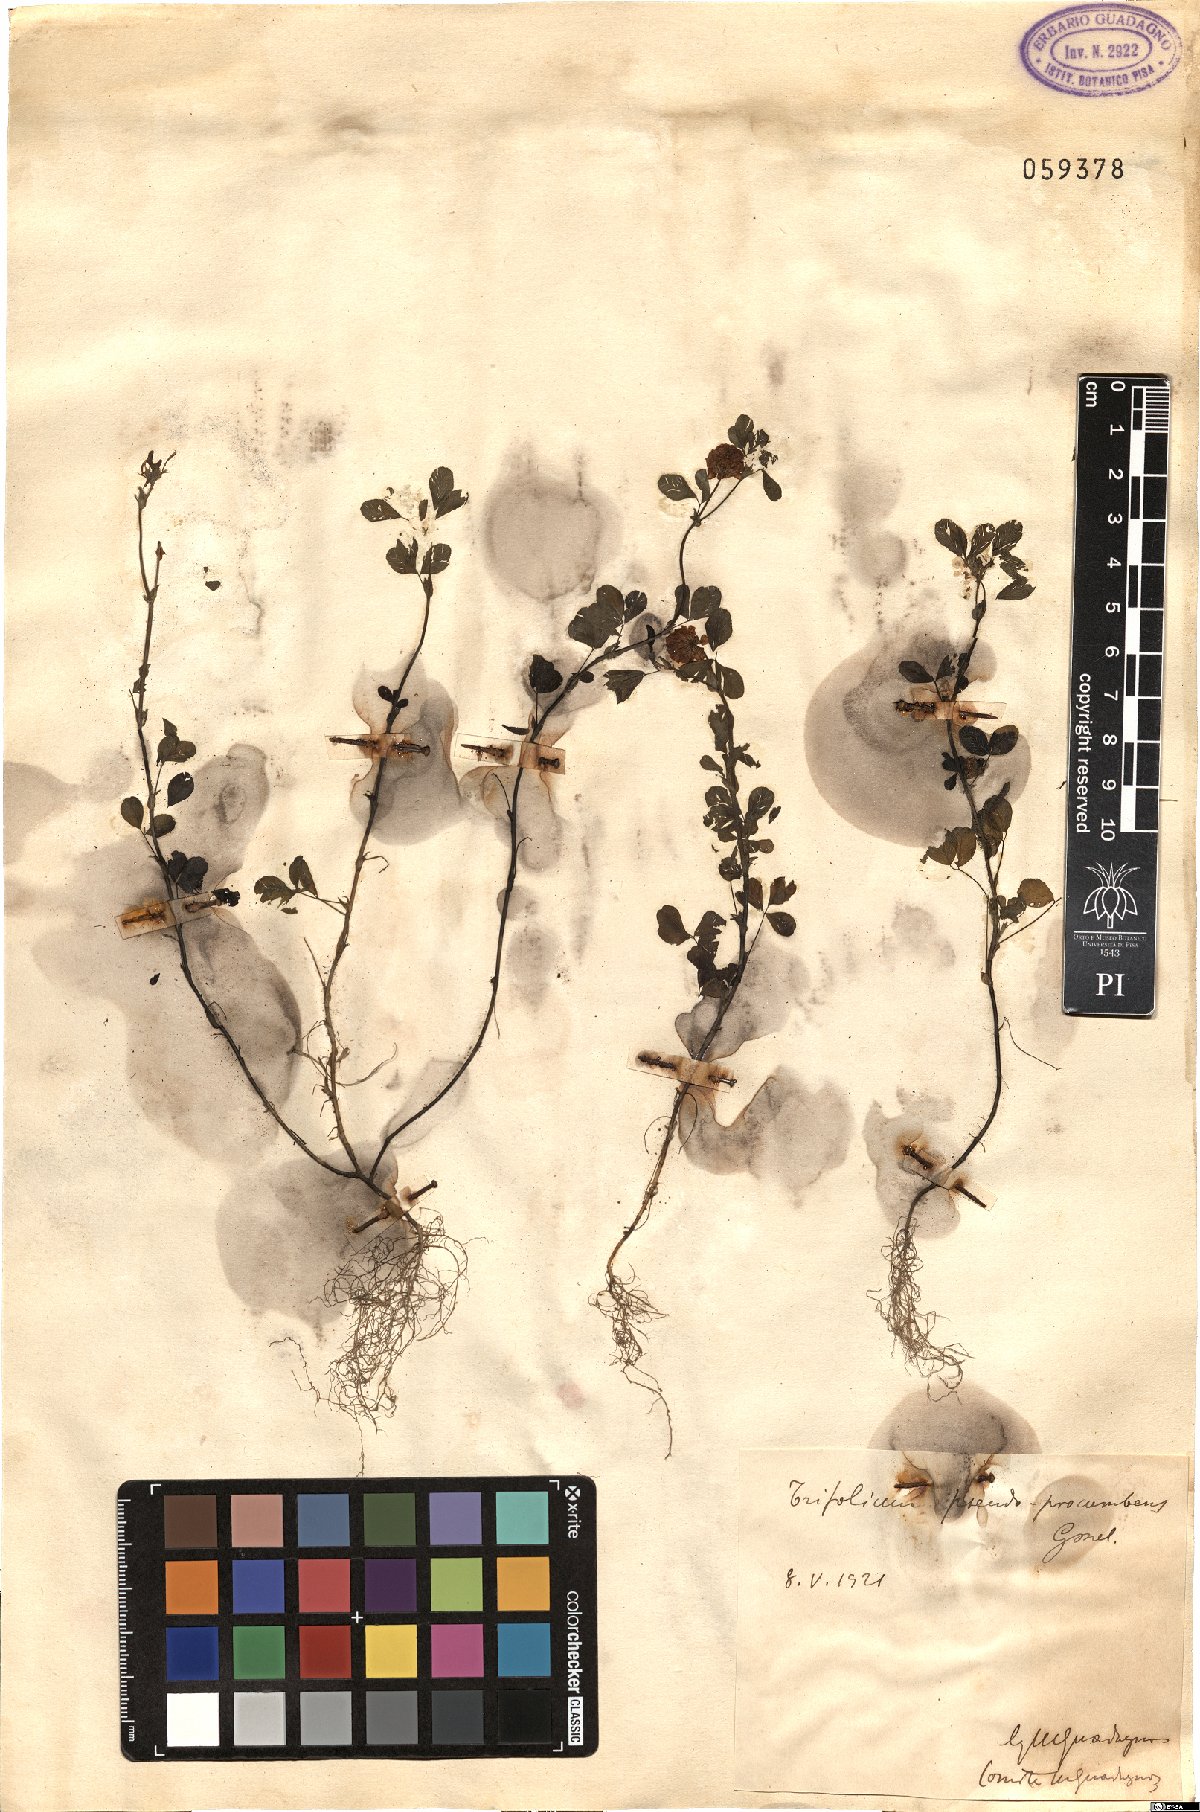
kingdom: Plantae
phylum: Tracheophyta
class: Magnoliopsida
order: Fabales
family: Fabaceae
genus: Trifolium
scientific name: Trifolium campestre
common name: Field clover
